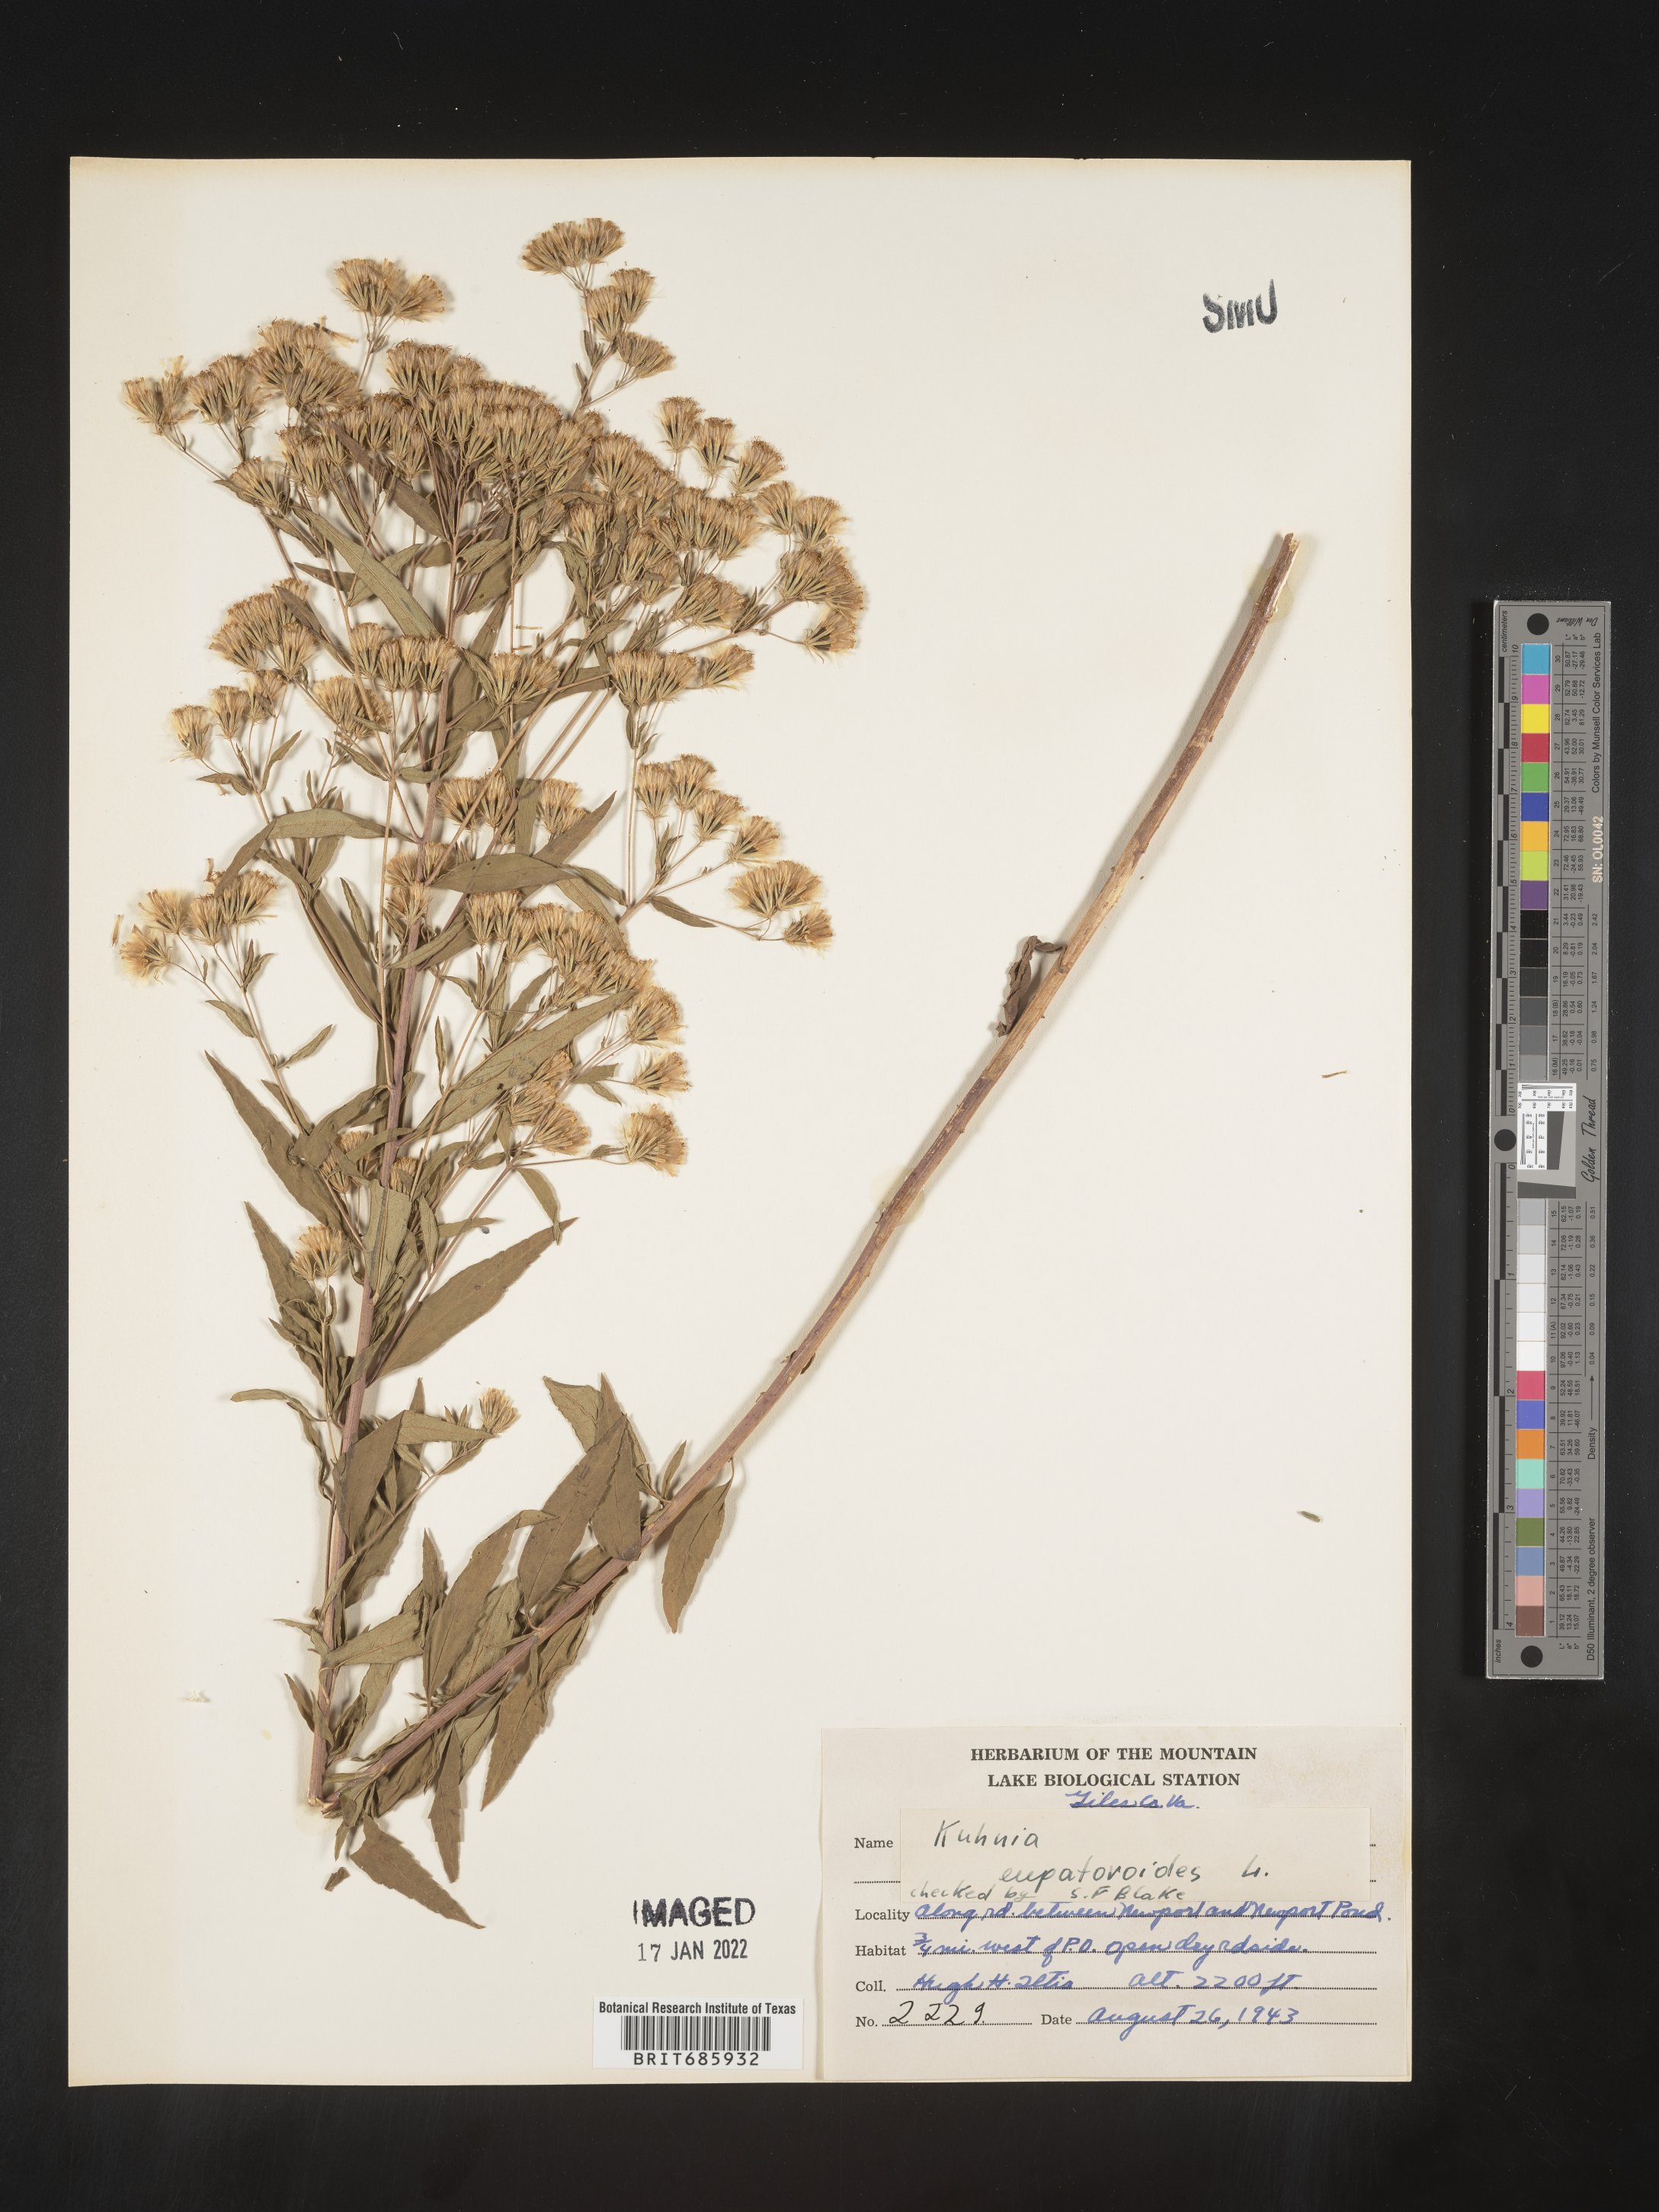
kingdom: Plantae
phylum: Tracheophyta
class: Magnoliopsida
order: Asterales
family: Asteraceae
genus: Brickellia
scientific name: Brickellia eupatorioides
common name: False boneset
